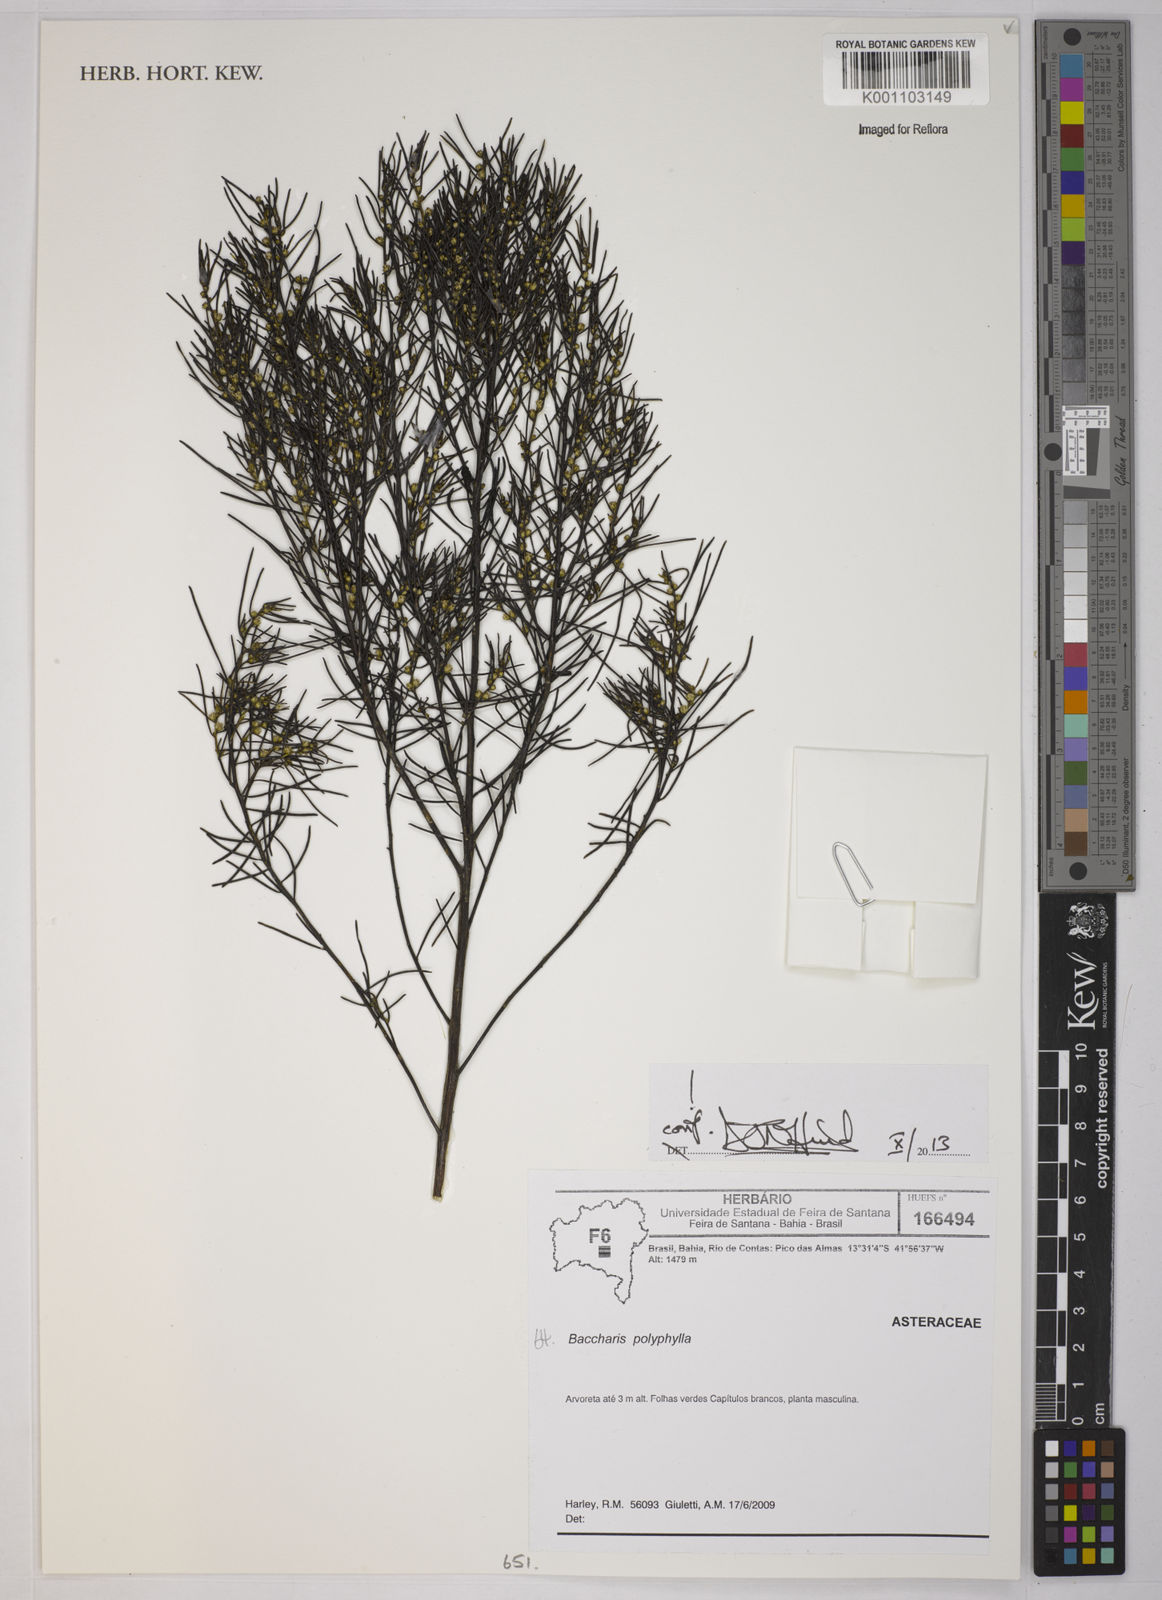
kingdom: Plantae
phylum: Tracheophyta
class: Magnoliopsida
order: Asterales
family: Asteraceae
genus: Baccharis
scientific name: Baccharis polyphylla
